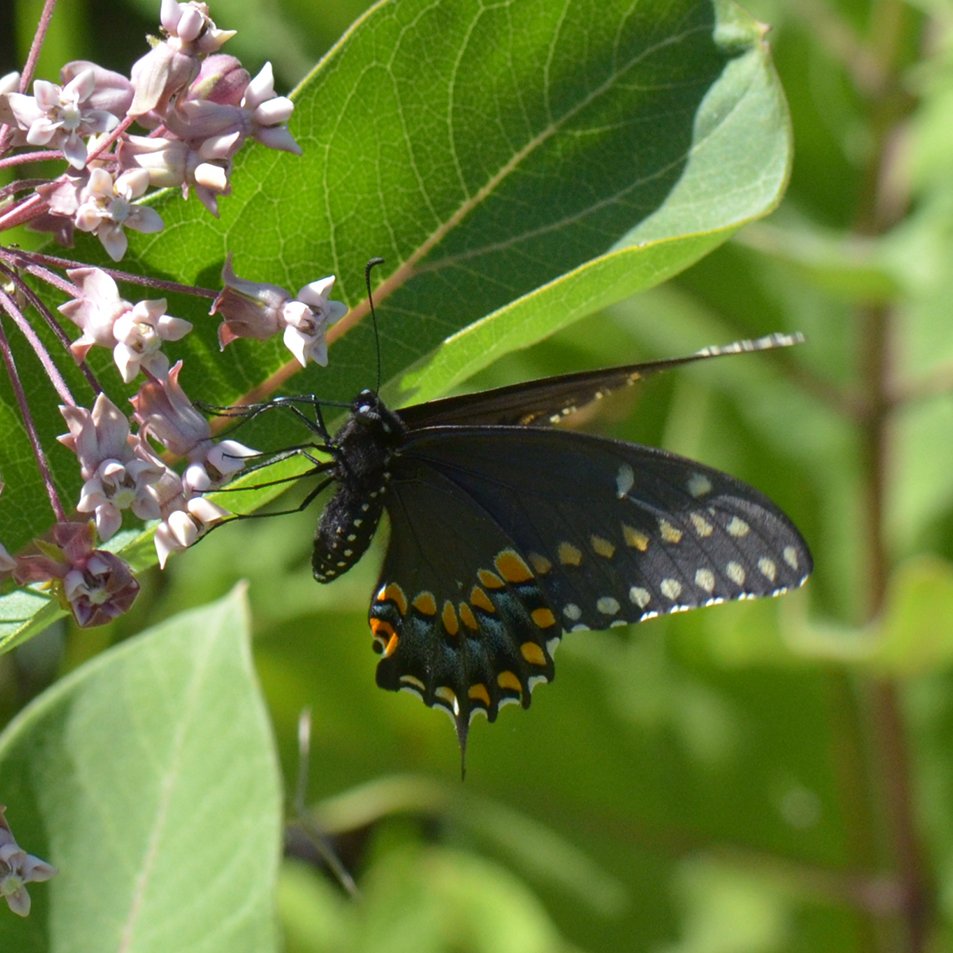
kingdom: Animalia
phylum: Arthropoda
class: Insecta
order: Lepidoptera
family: Papilionidae
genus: Papilio
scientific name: Papilio polyxenes
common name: Black Swallowtail
